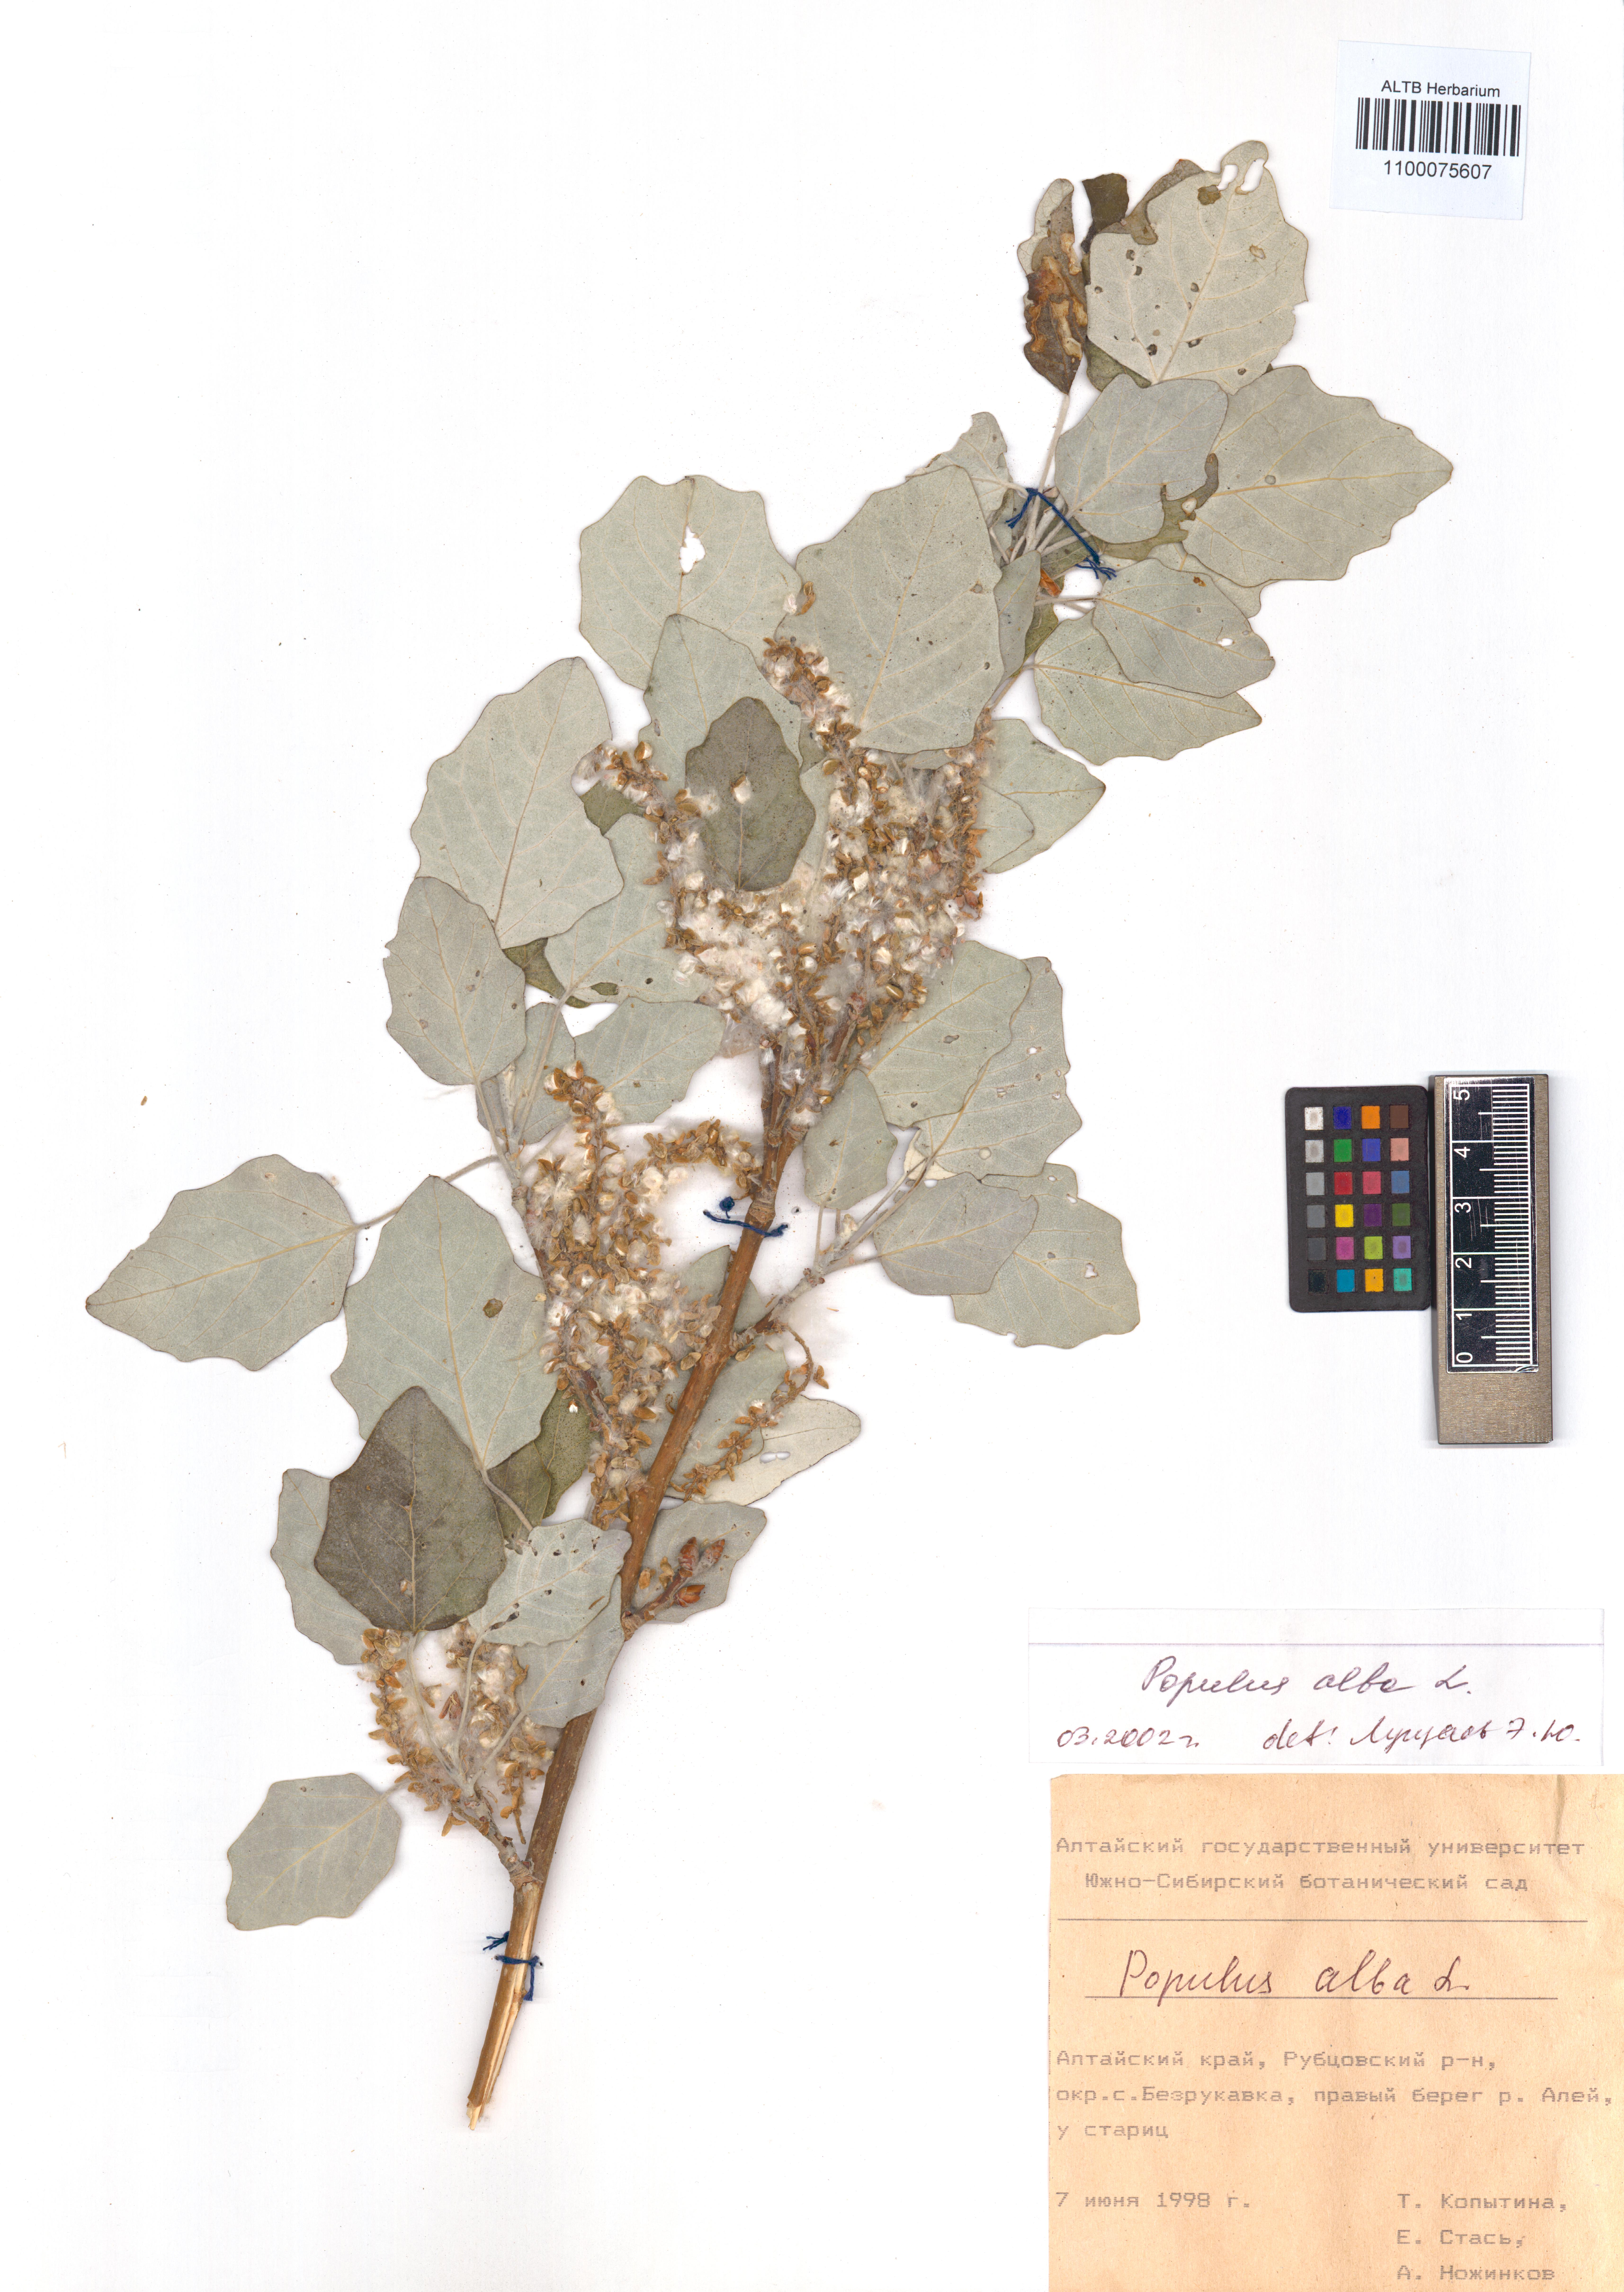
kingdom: Plantae
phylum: Tracheophyta
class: Magnoliopsida
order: Malpighiales
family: Salicaceae
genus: Populus
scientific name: Populus alba
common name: White poplar
